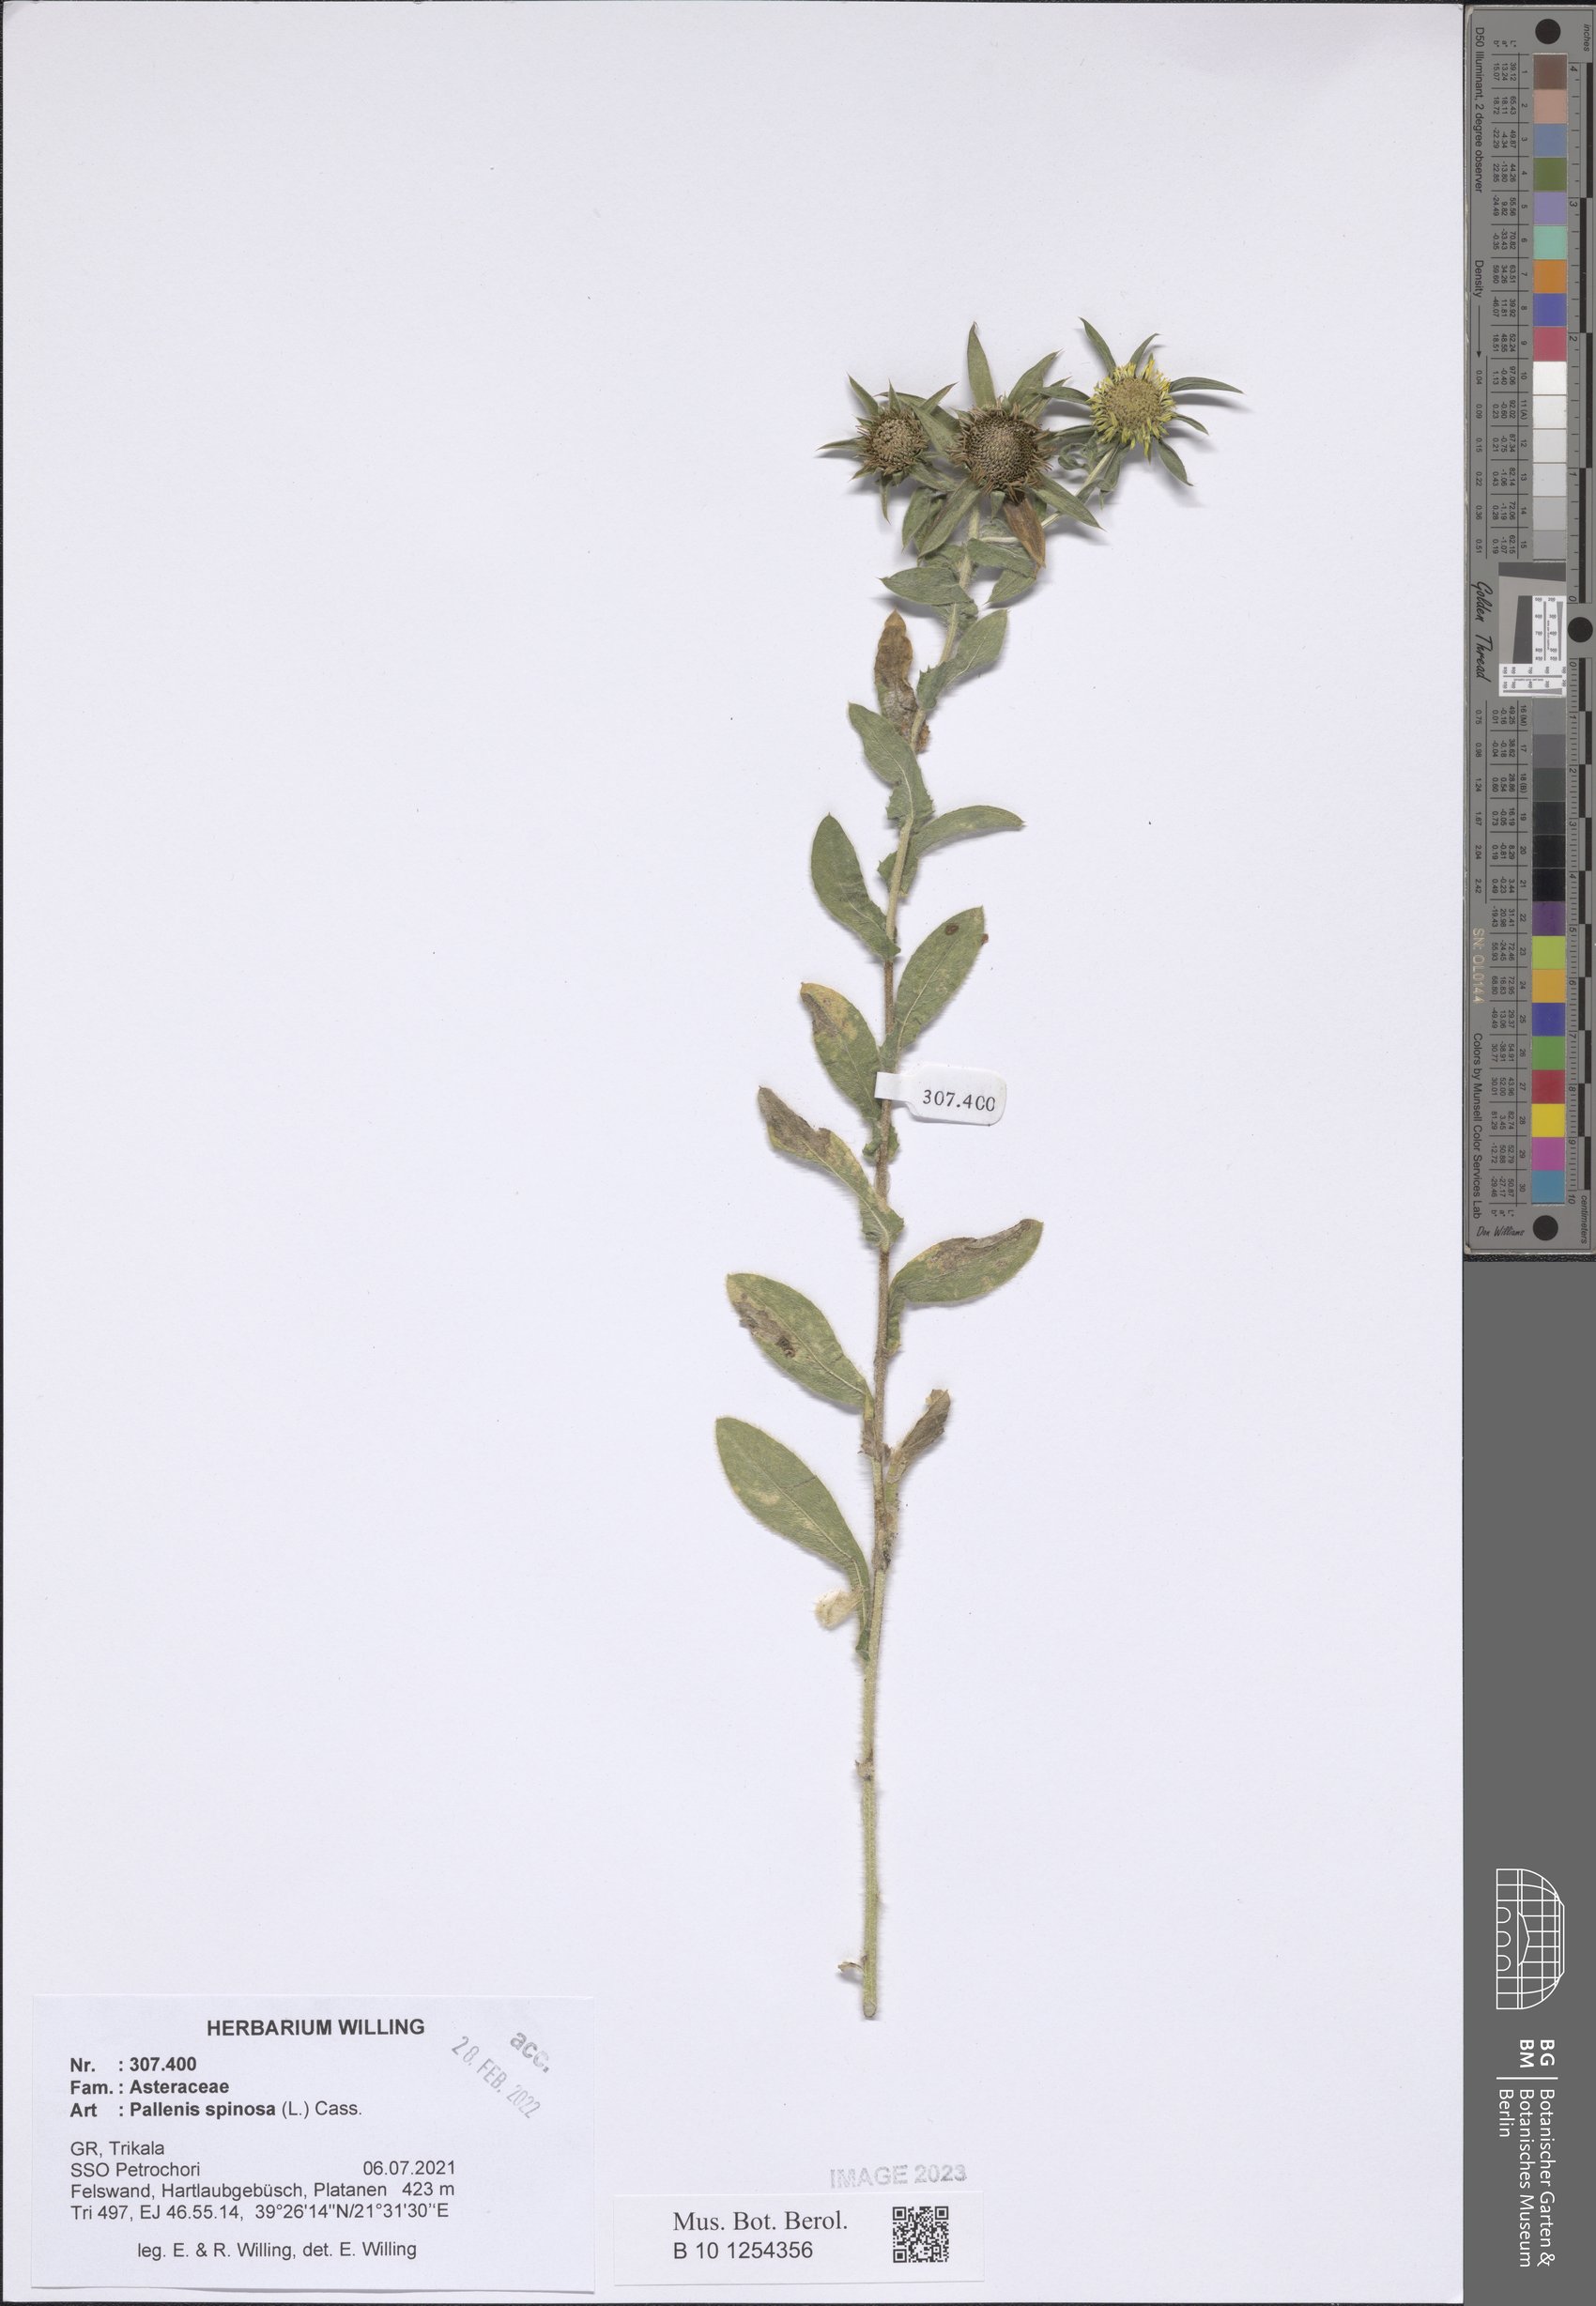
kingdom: Plantae
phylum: Tracheophyta
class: Magnoliopsida
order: Asterales
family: Asteraceae
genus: Pallenis
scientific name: Pallenis spinosa
